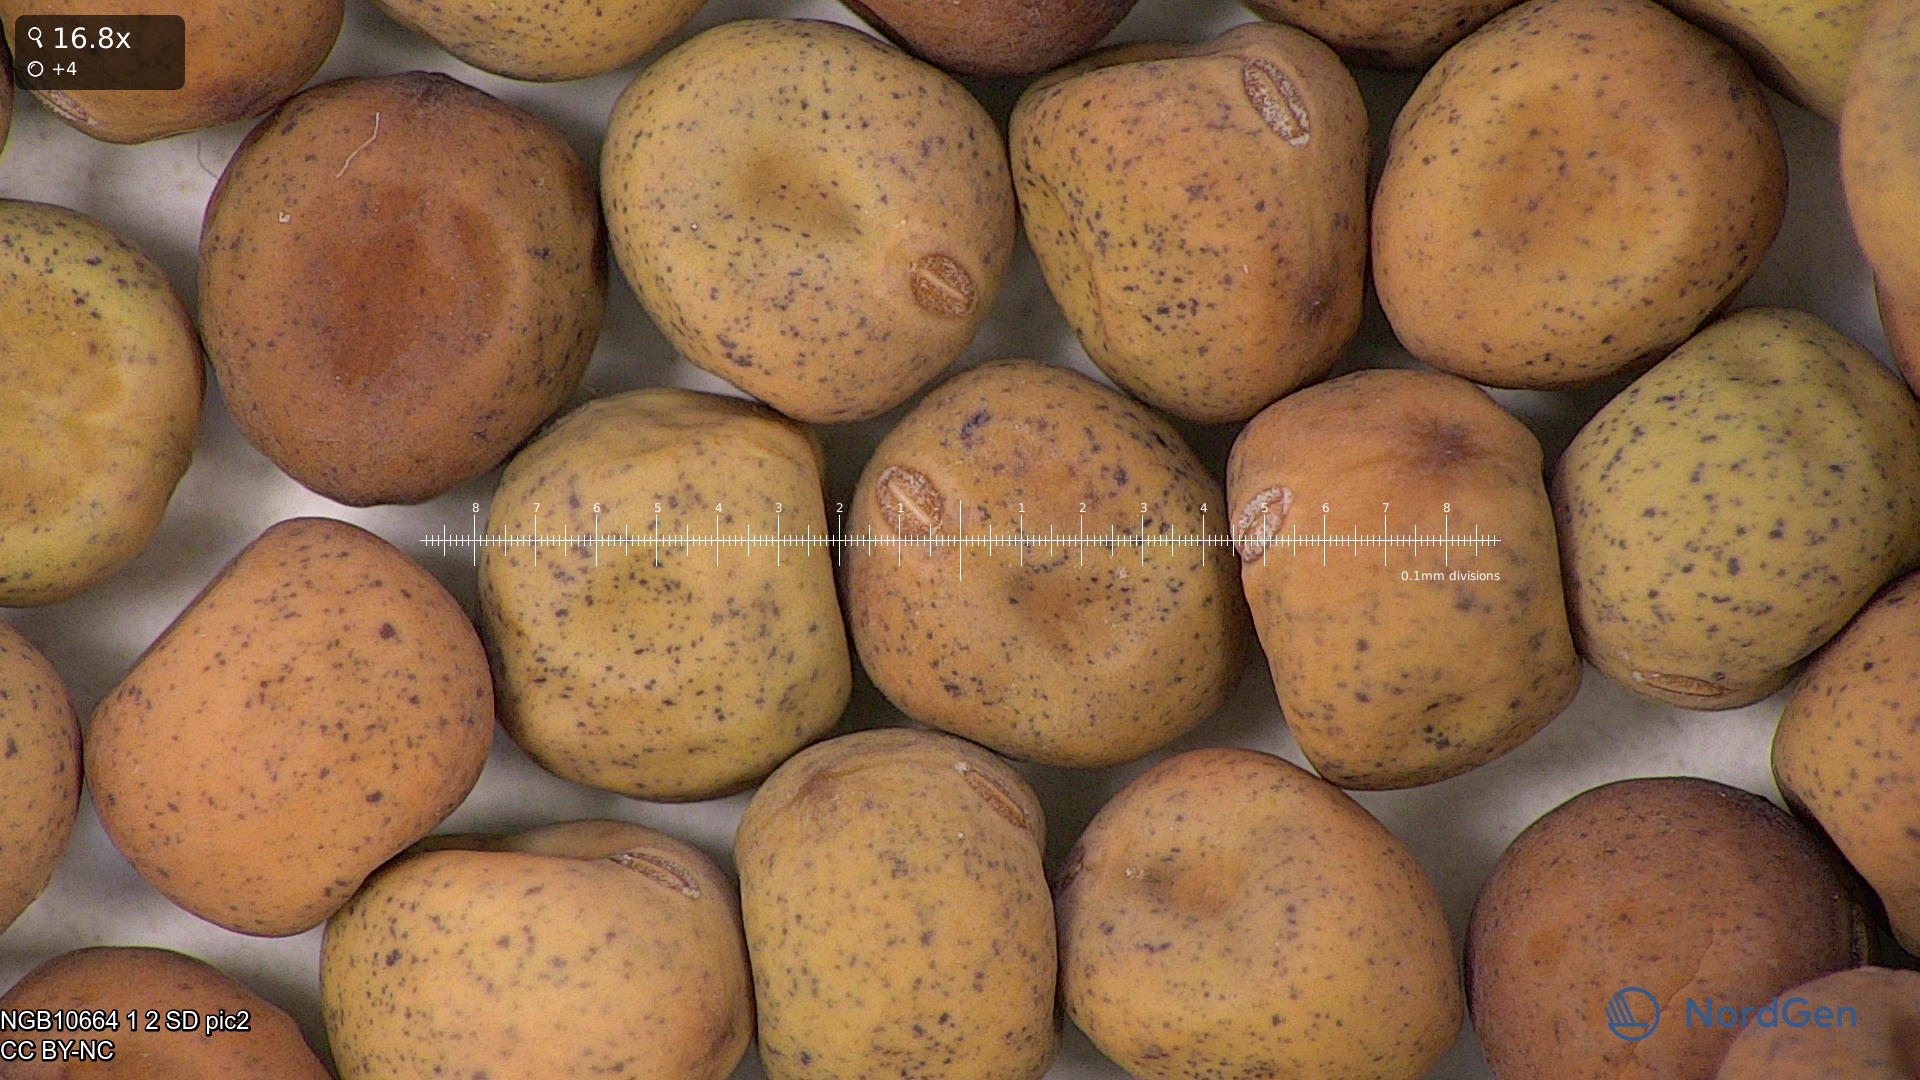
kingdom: Plantae
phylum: Tracheophyta
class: Magnoliopsida
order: Fabales
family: Fabaceae
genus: Lathyrus
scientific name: Lathyrus oleraceus
